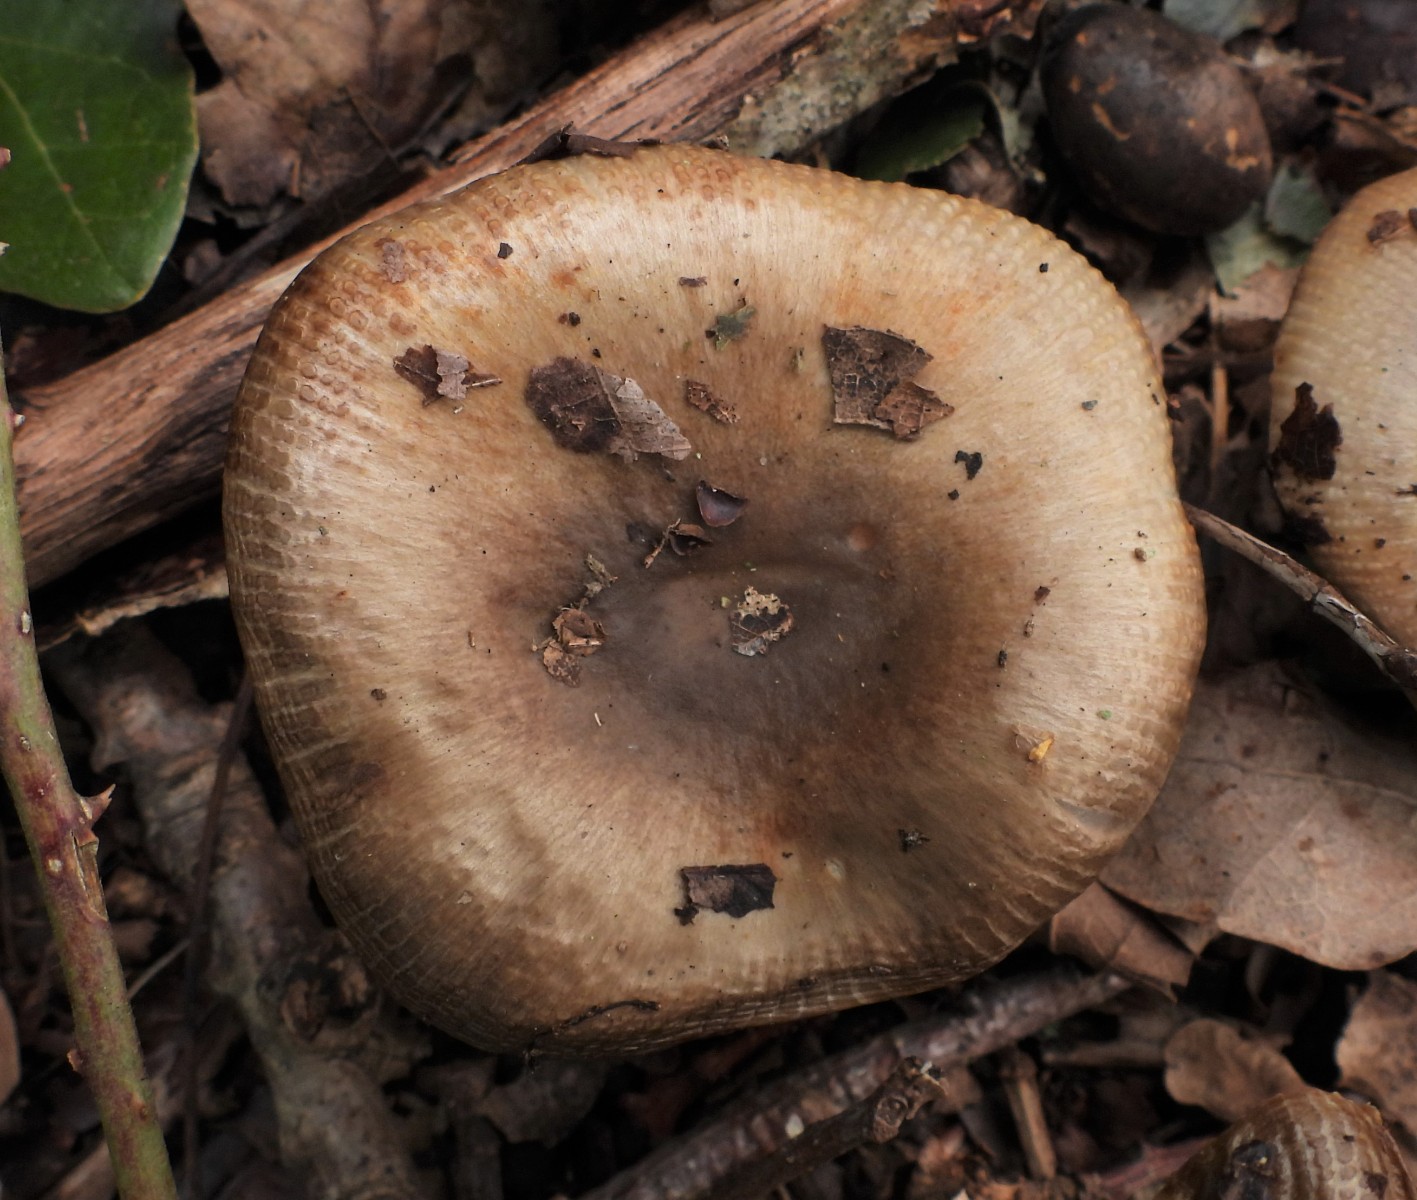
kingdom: Fungi
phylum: Basidiomycota
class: Agaricomycetes
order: Russulales
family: Russulaceae
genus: Russula
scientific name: Russula amoenolens
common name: skarp kam-skørhat
